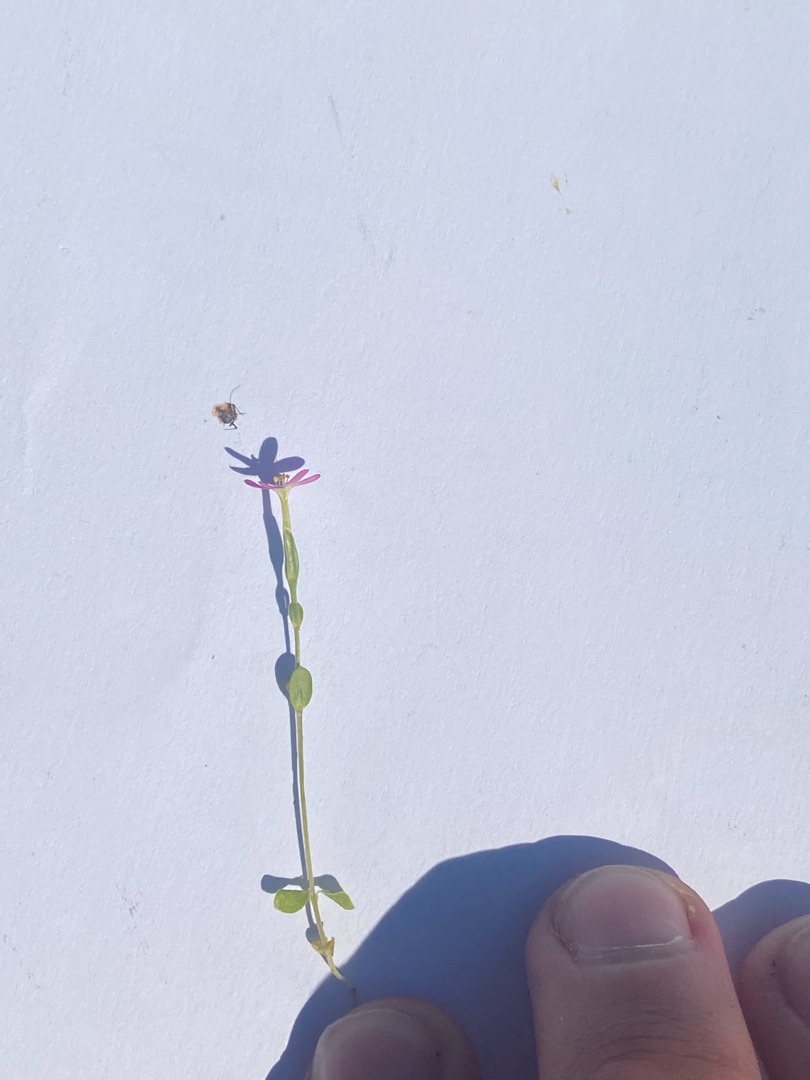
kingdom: Plantae
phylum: Tracheophyta
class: Magnoliopsida
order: Gentianales
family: Gentianaceae
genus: Centaurium
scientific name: Centaurium pulchellum
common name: Liden tusindgylden
